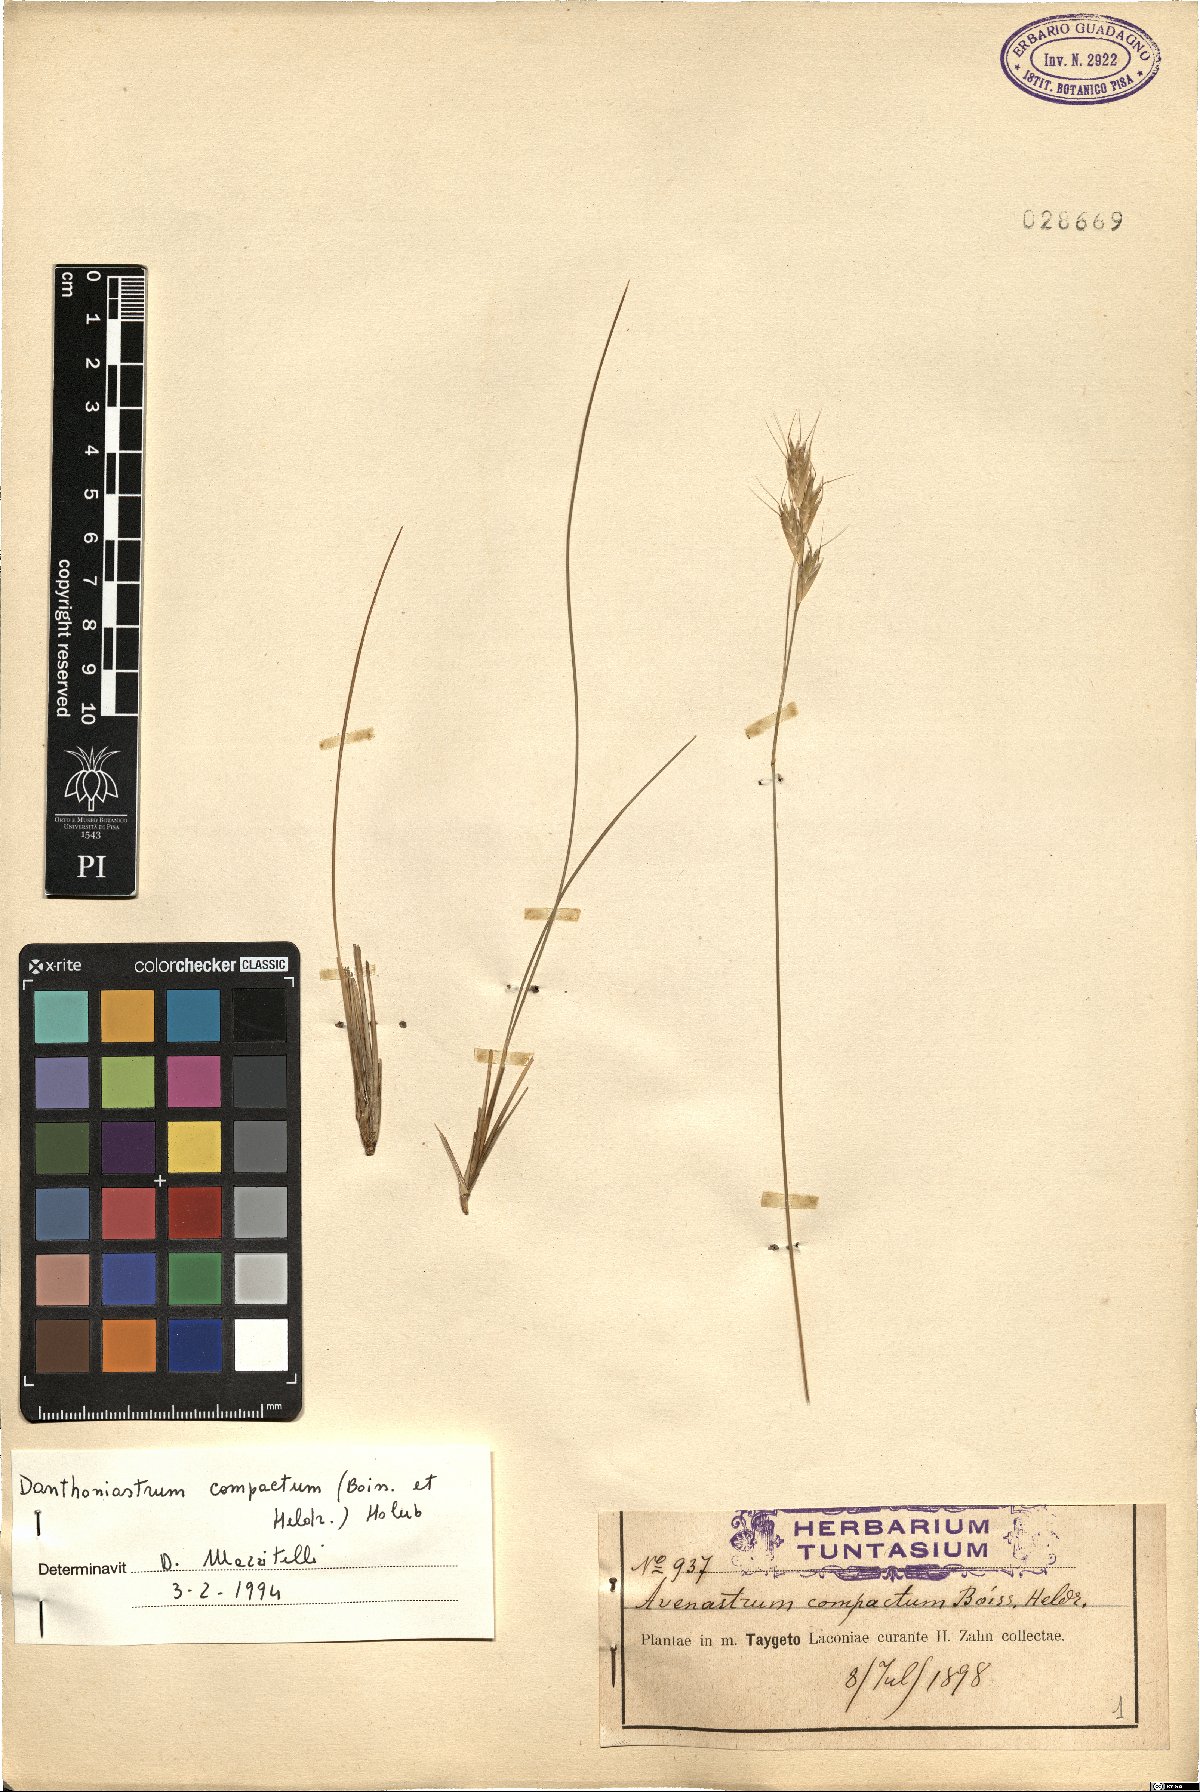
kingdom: Plantae
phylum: Tracheophyta
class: Liliopsida
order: Poales
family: Poaceae
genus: Danthoniastrum
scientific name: Danthoniastrum compactum
